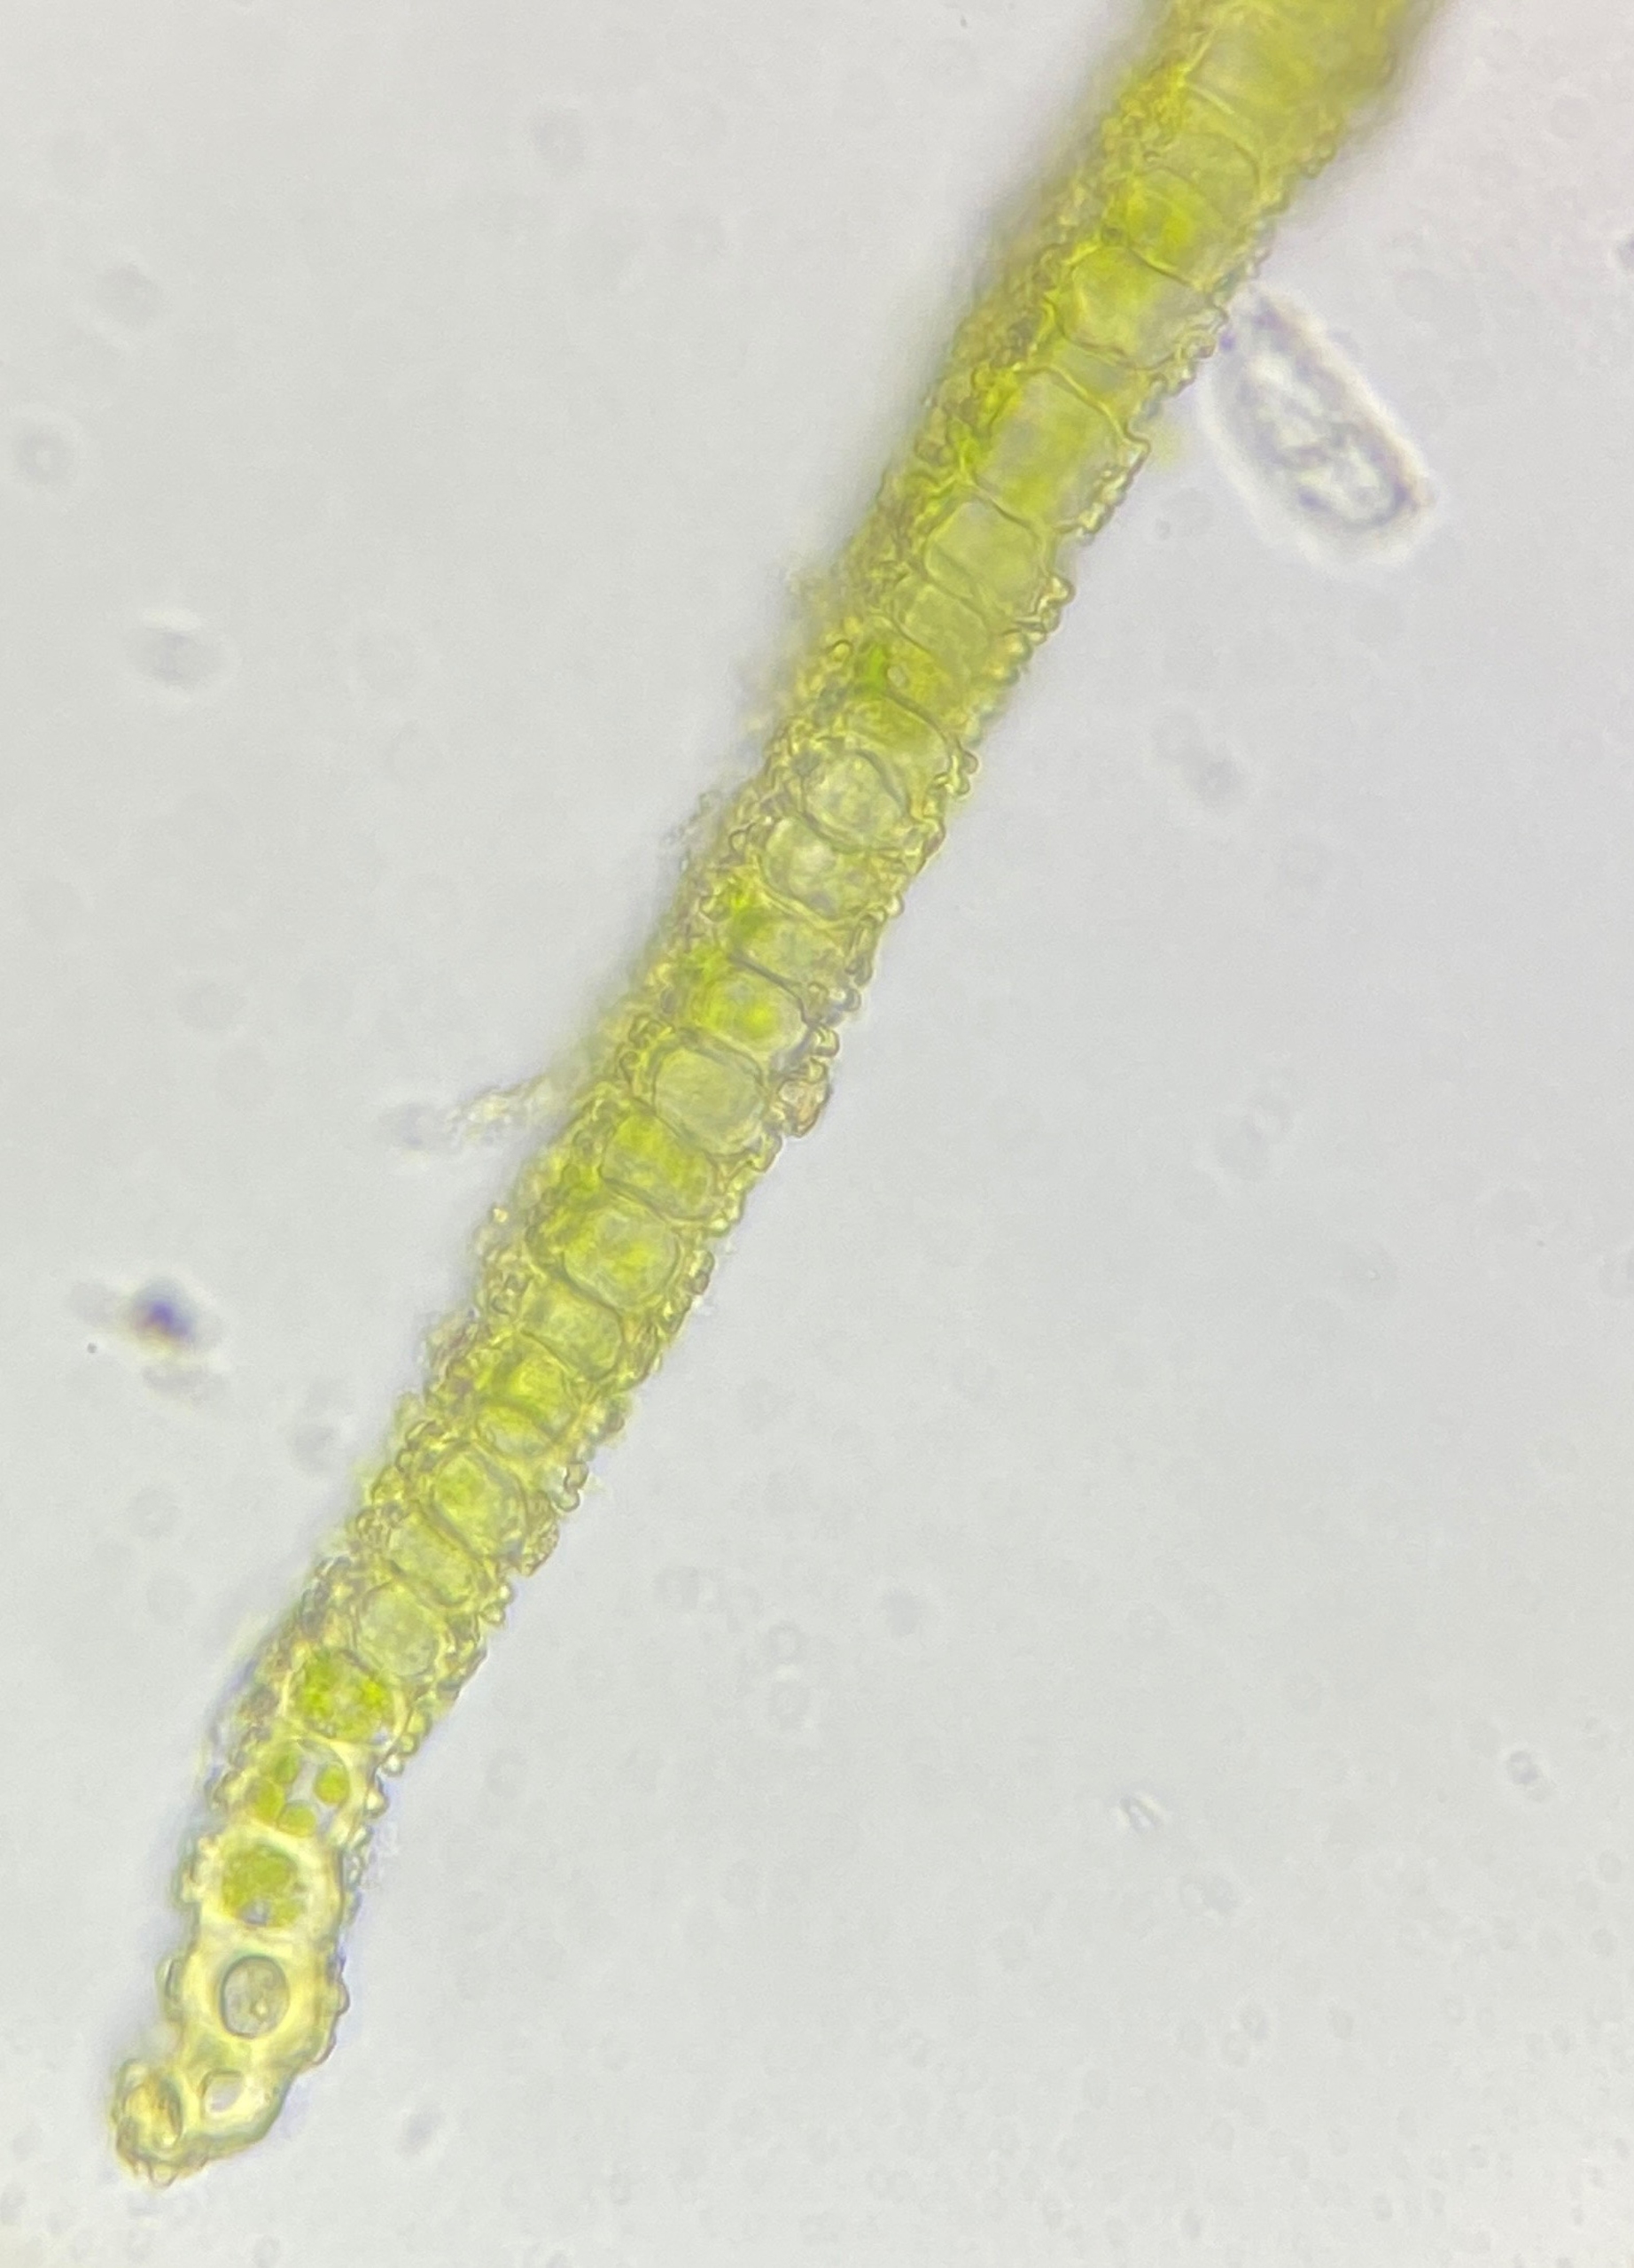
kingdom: Plantae
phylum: Bryophyta
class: Bryopsida
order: Pottiales
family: Pottiaceae
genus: Tortula
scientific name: Tortula subulata
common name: Syl-snotand
